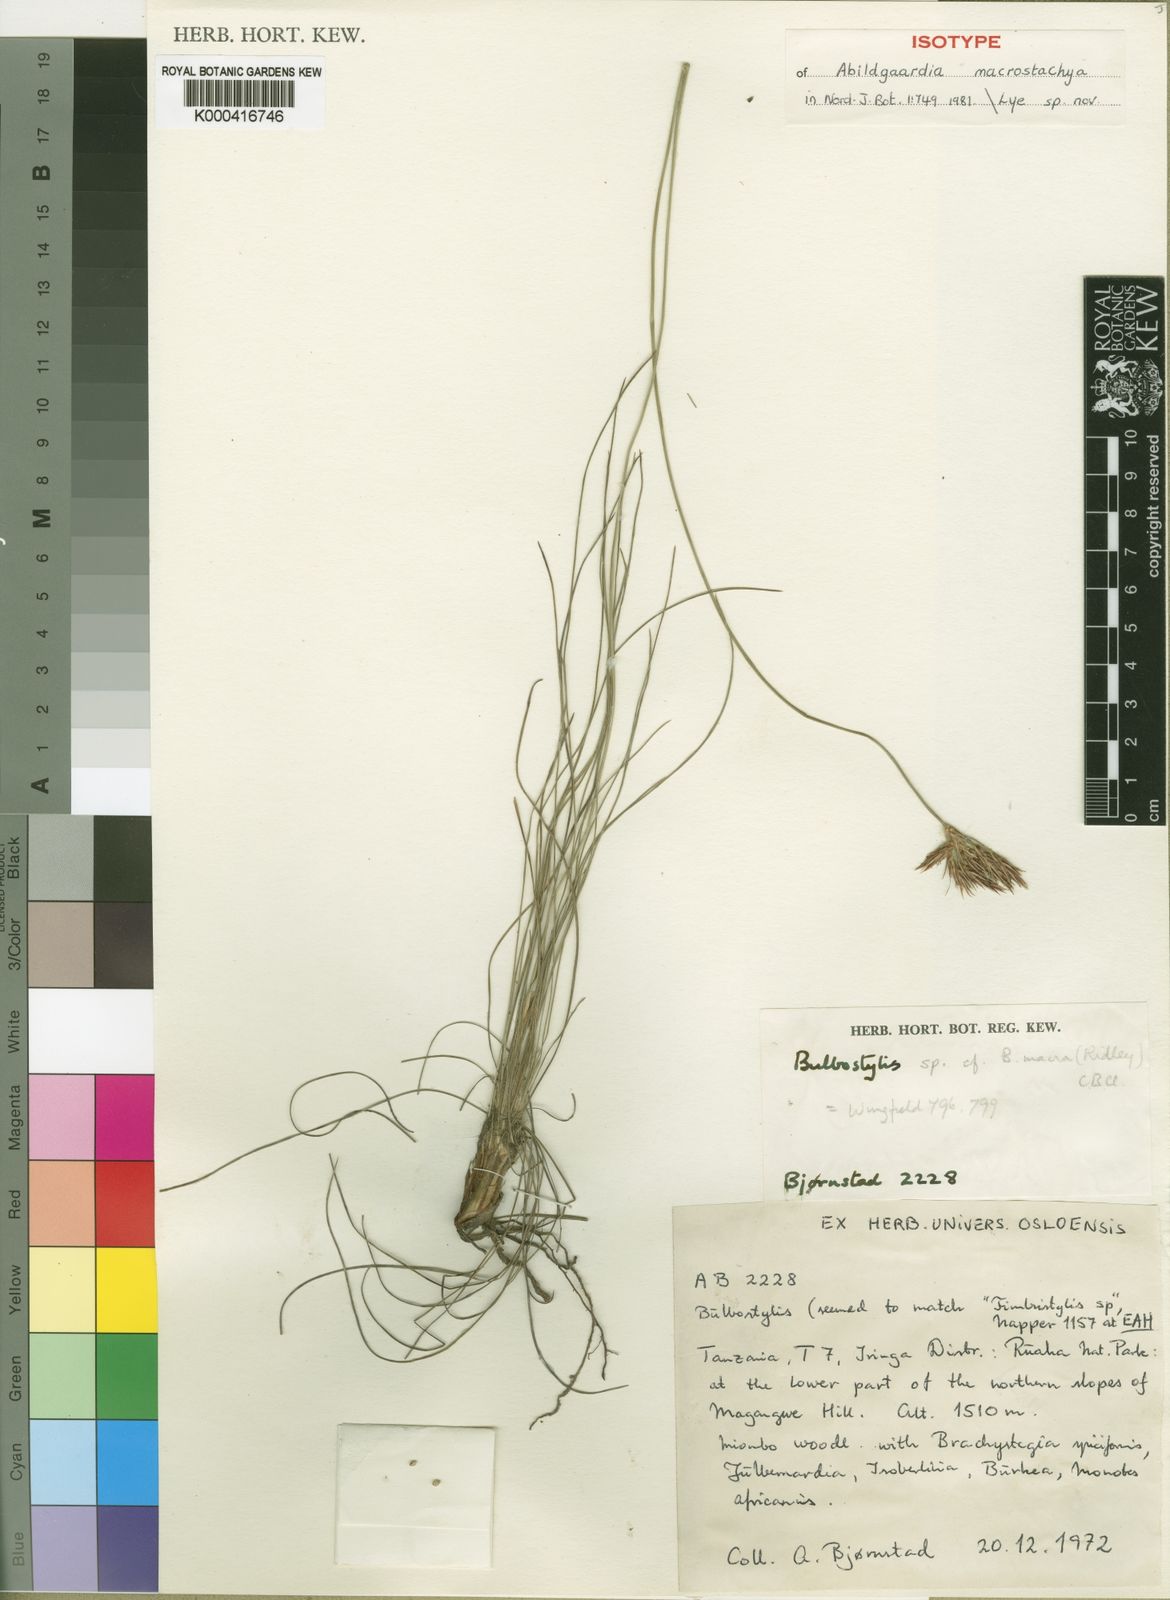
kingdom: Plantae
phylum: Tracheophyta
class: Liliopsida
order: Poales
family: Cyperaceae
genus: Bulbostylis
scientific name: Bulbostylis macrostachya
